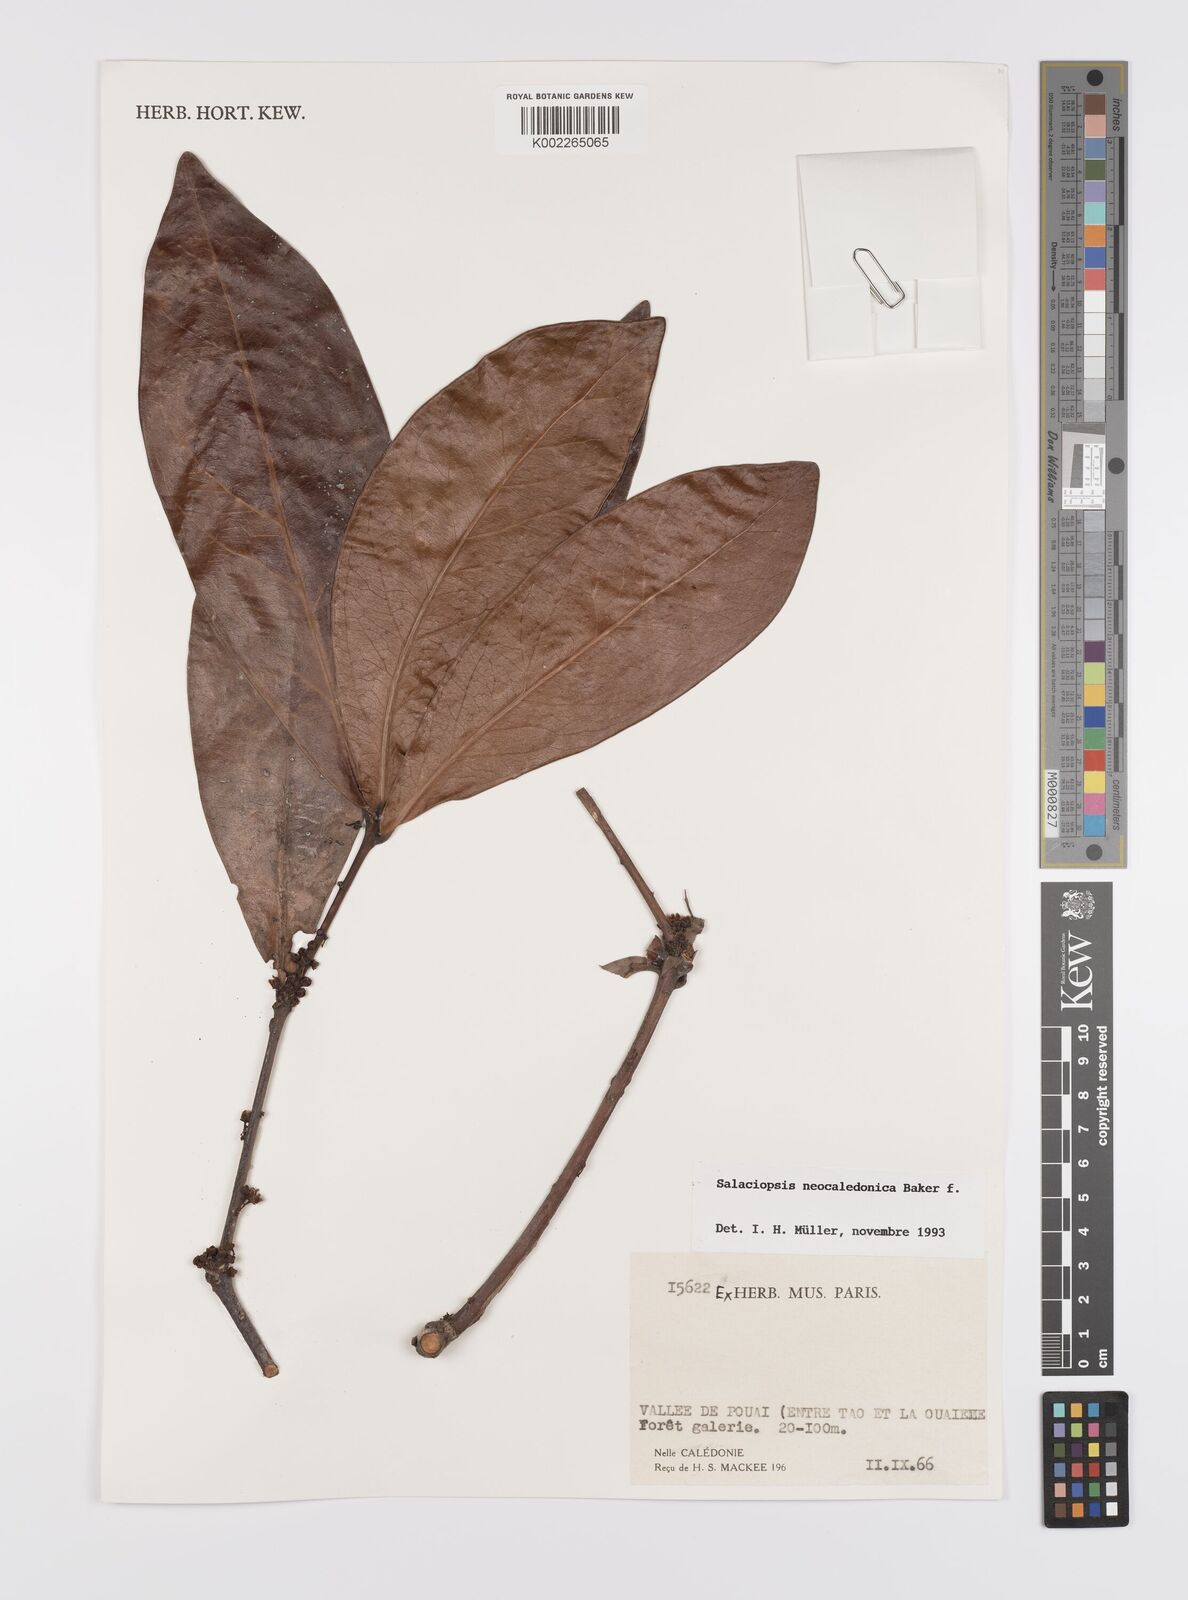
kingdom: Plantae
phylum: Tracheophyta
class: Magnoliopsida
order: Celastrales
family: Celastraceae
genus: Salaciopsis
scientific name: Salaciopsis neocaledonica
